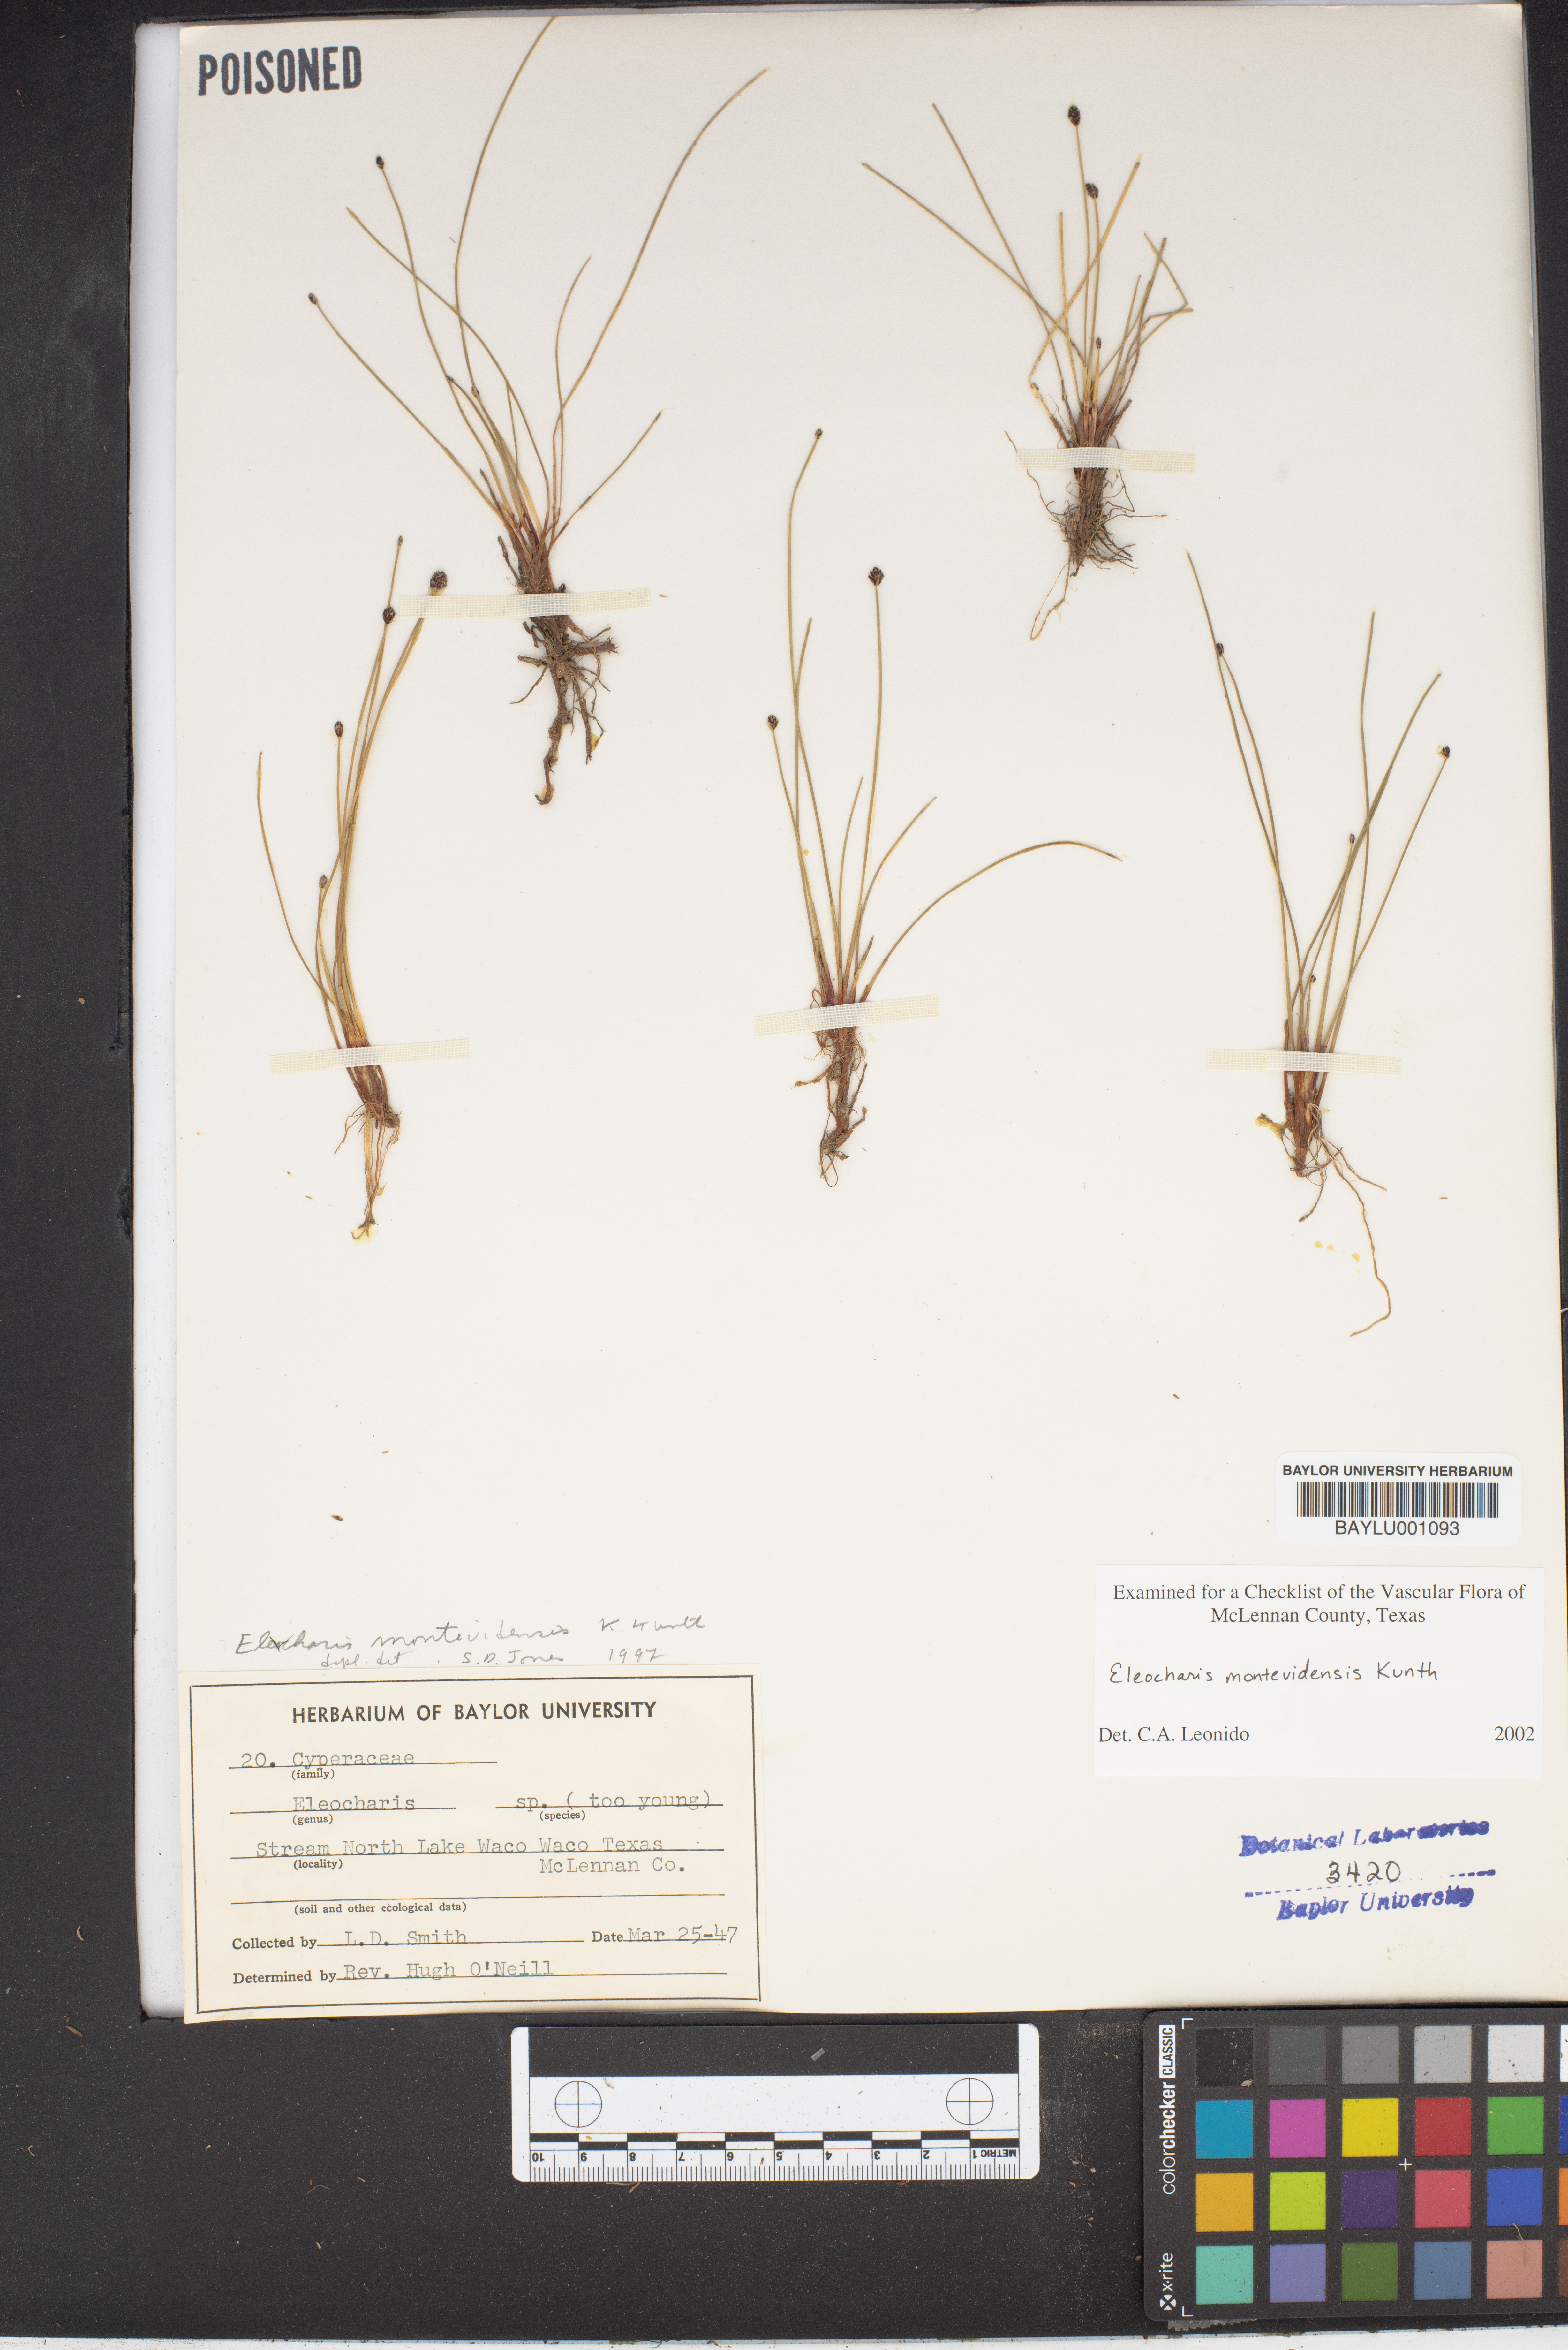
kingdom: Plantae
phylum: Tracheophyta
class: Liliopsida
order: Poales
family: Cyperaceae
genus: Eleocharis
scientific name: Eleocharis montevidensis
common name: Sand spike-rush
